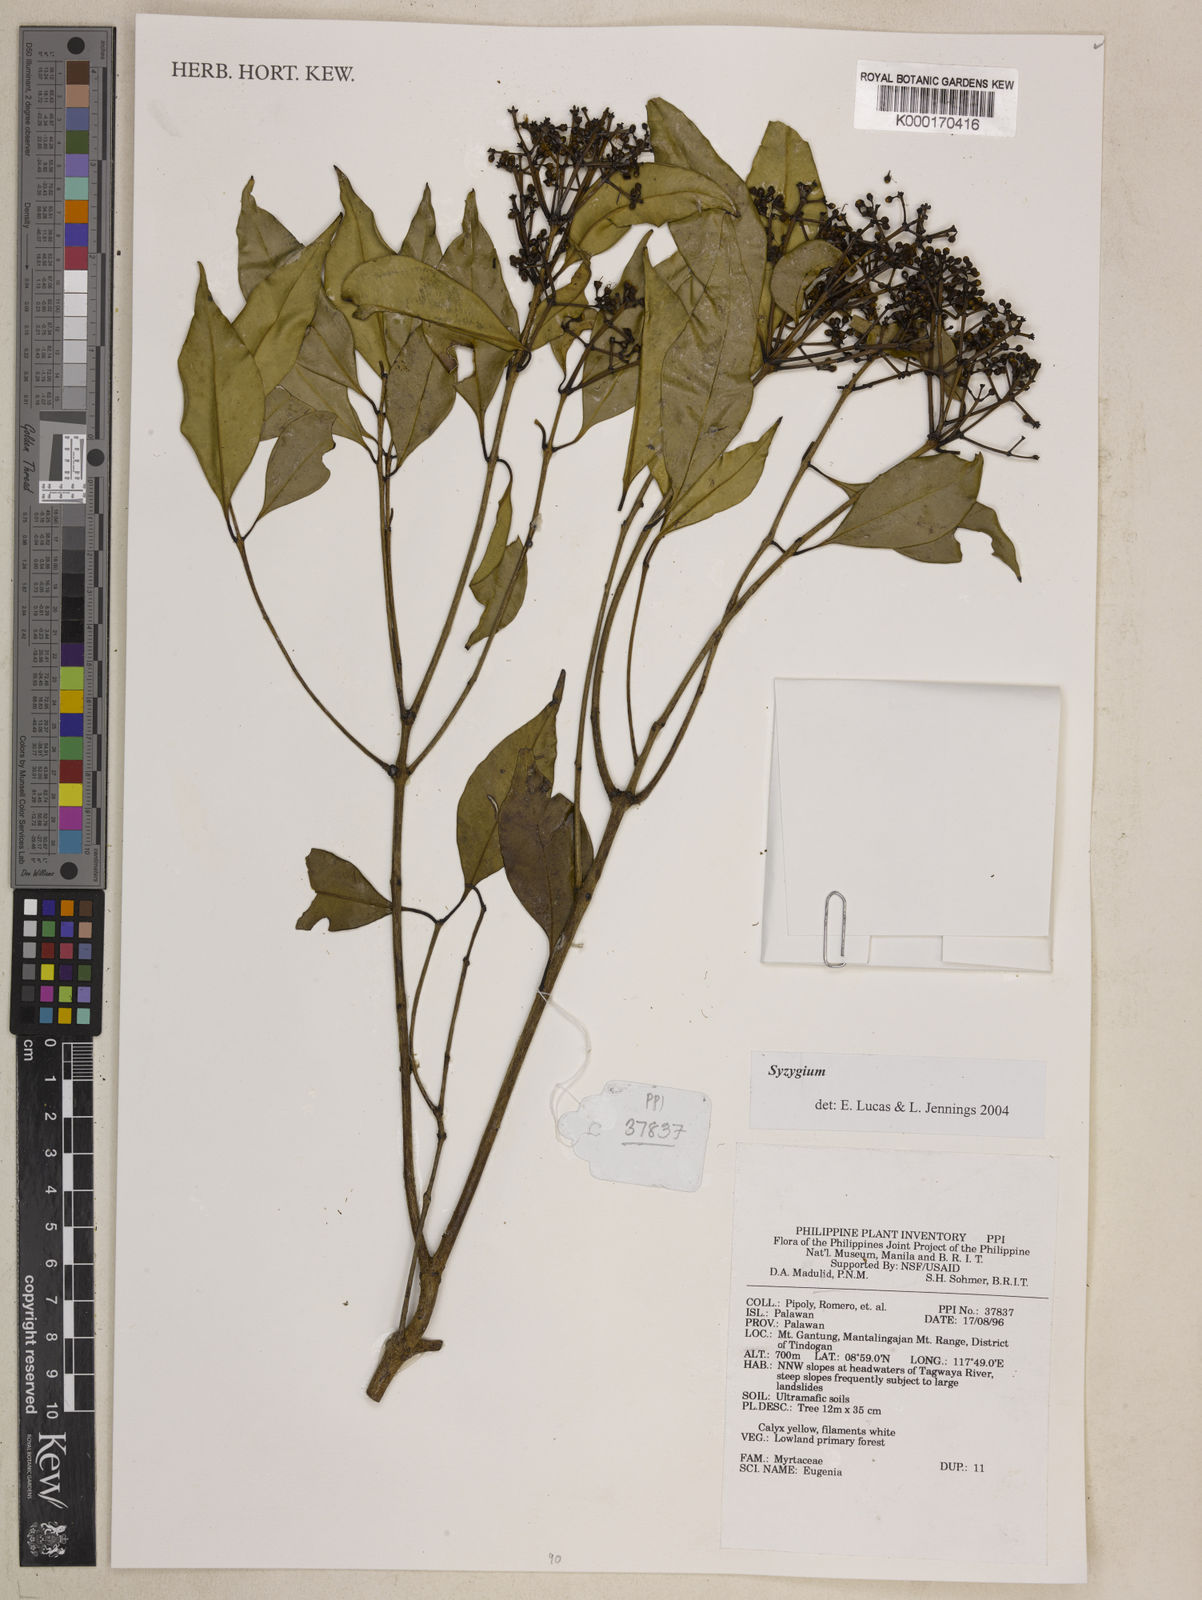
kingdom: Plantae
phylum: Tracheophyta
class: Magnoliopsida
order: Myrtales
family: Myrtaceae
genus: Syzygium
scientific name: Syzygium
